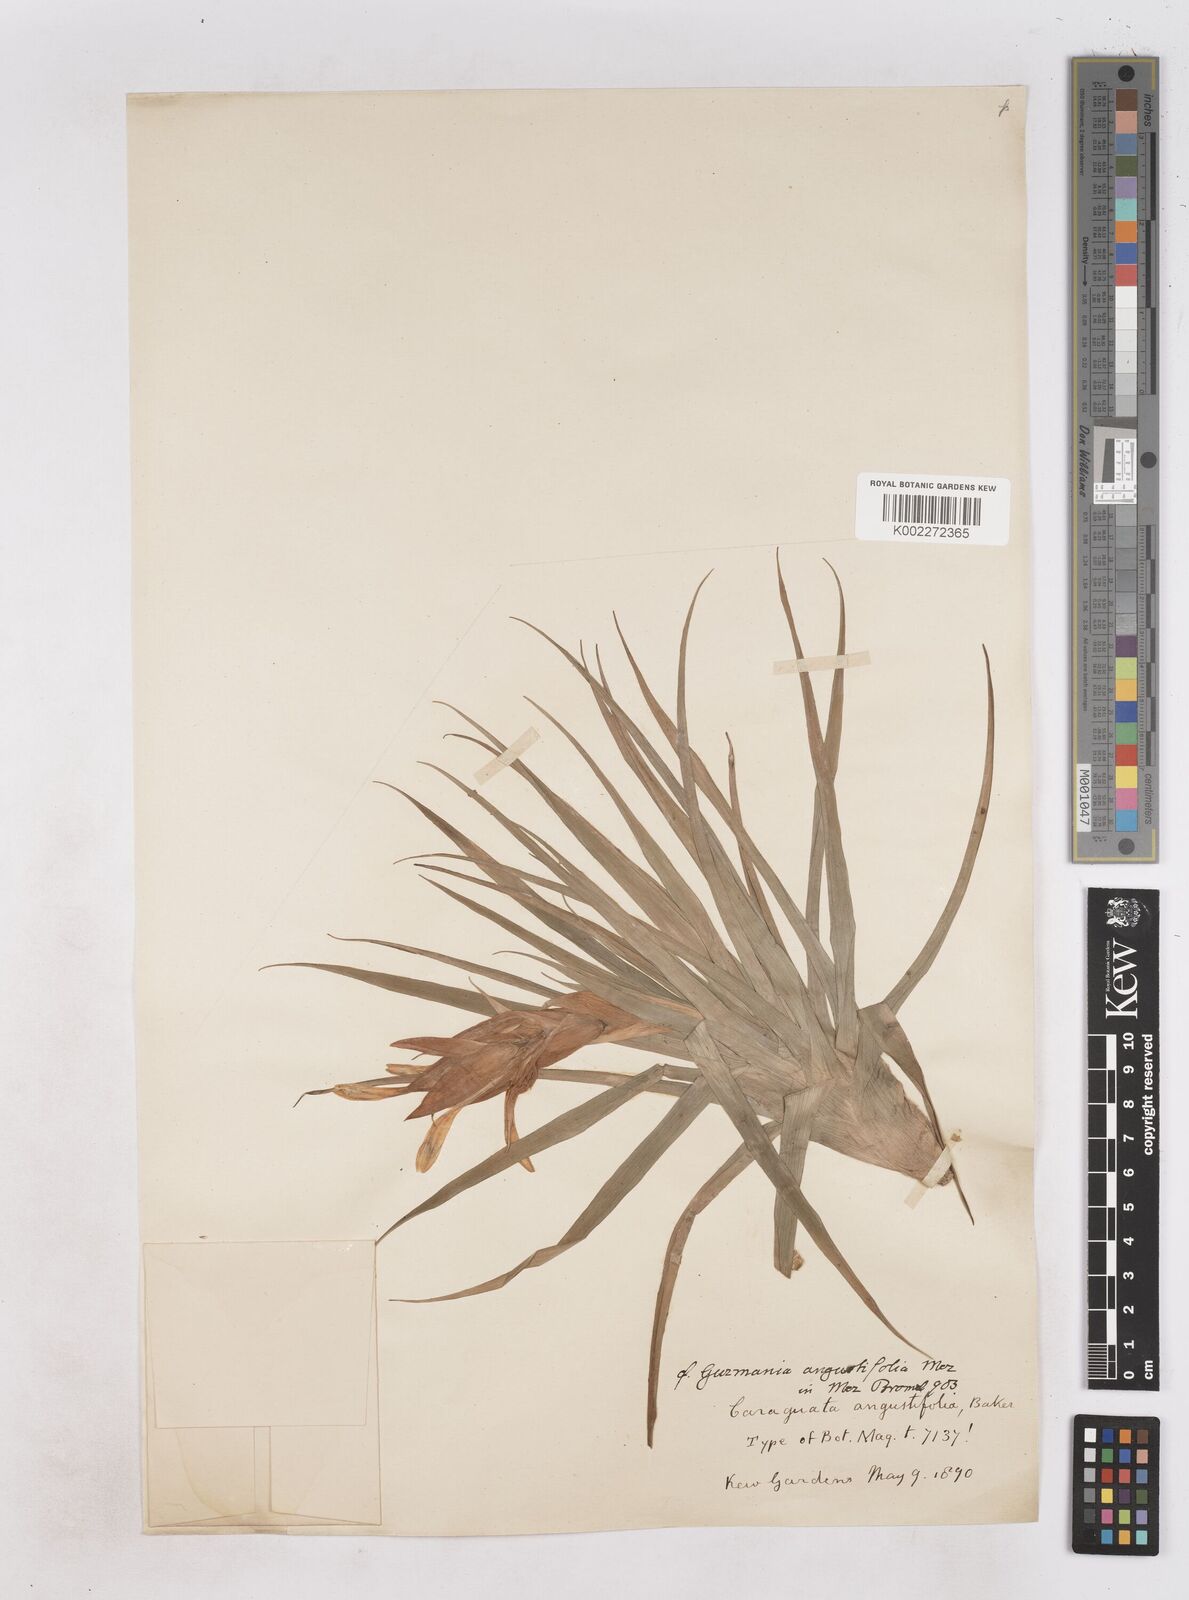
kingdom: Plantae
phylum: Tracheophyta
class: Liliopsida
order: Poales
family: Bromeliaceae
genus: Guzmania
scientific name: Guzmania angustifolia
